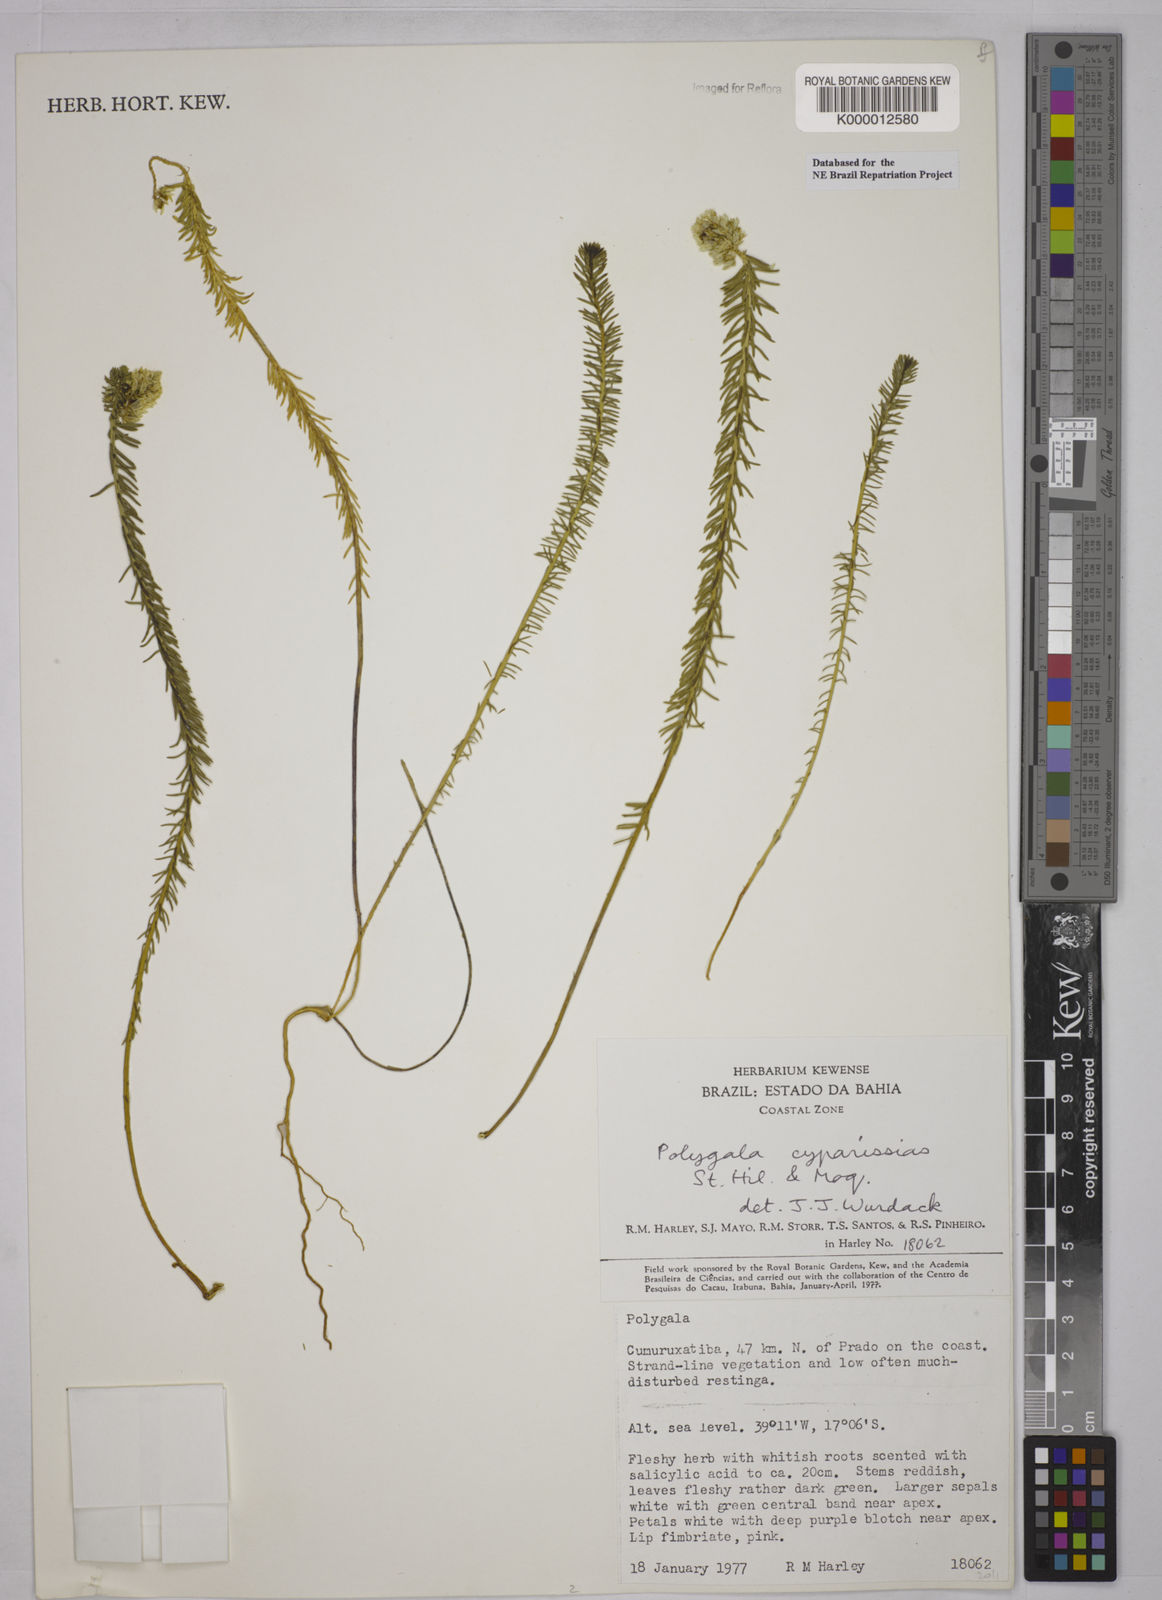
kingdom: Plantae
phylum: Tracheophyta
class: Magnoliopsida
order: Fabales
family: Polygalaceae
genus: Polygala
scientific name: Polygala cyparissias
